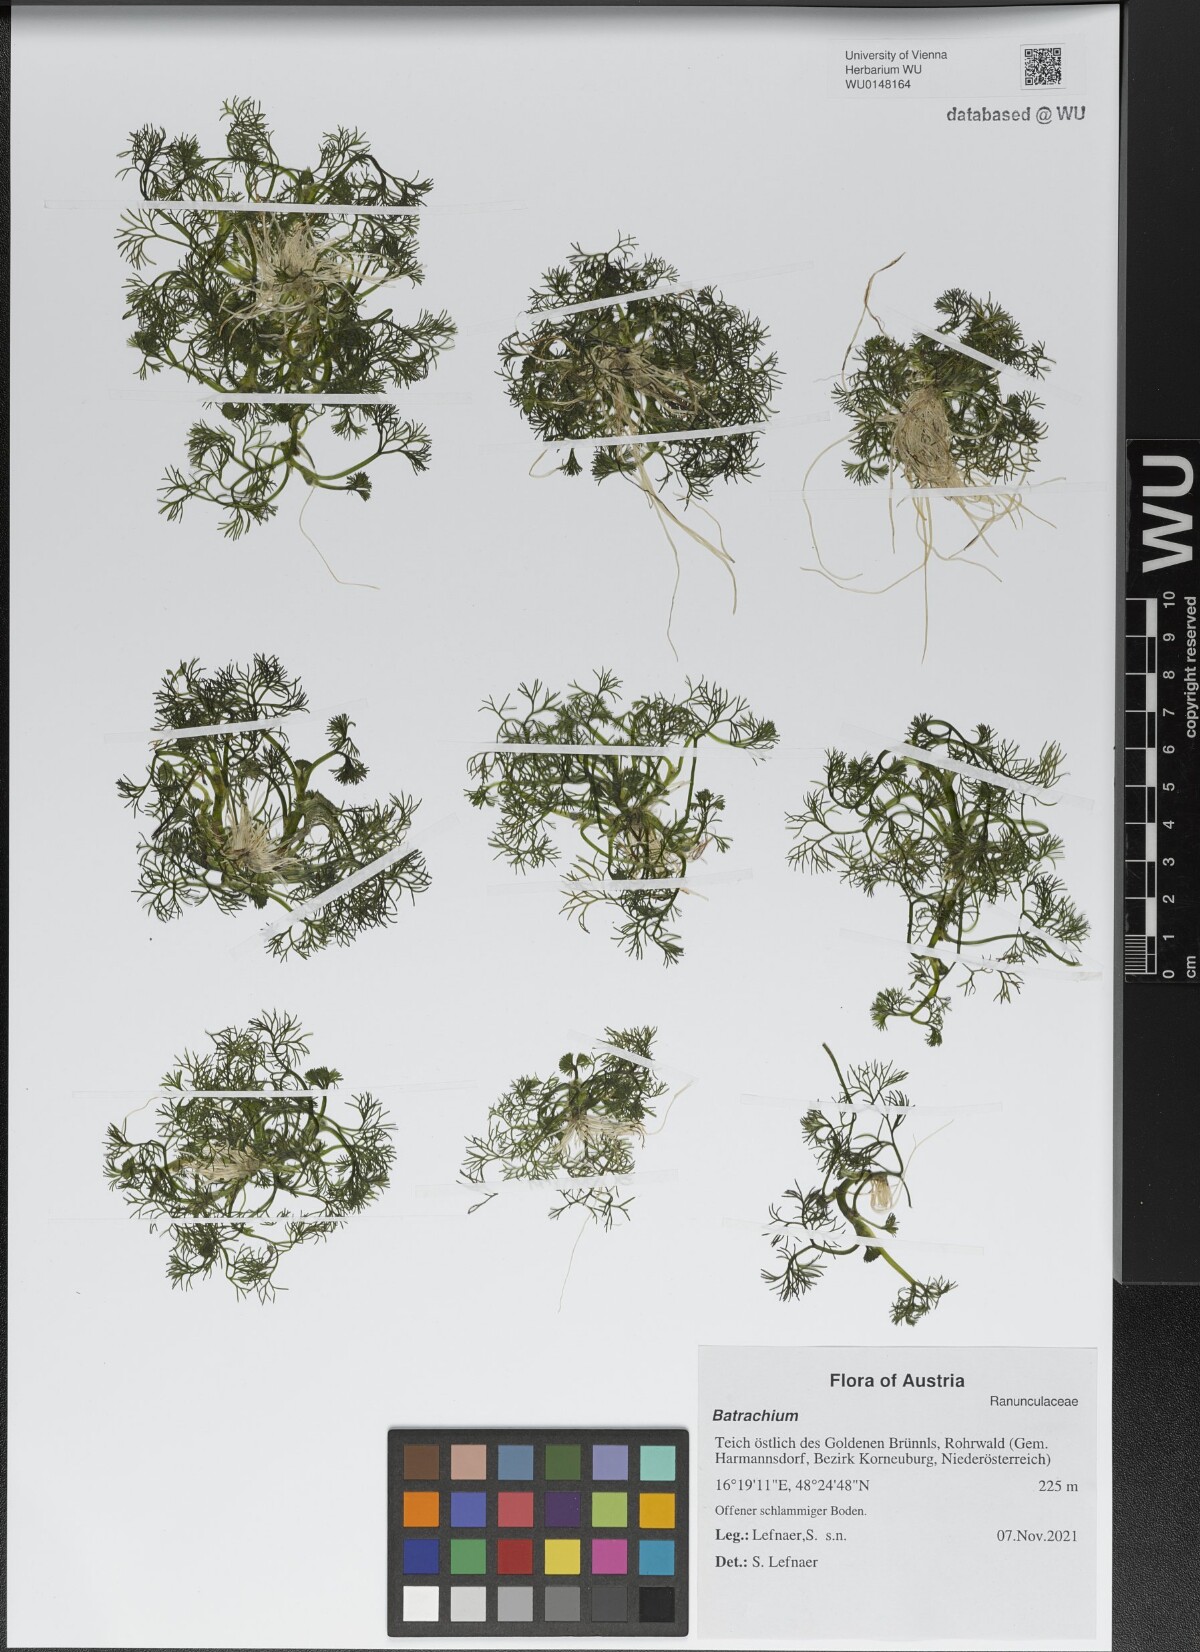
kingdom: Plantae
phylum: Tracheophyta
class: Magnoliopsida
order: Ranunculales
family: Ranunculaceae
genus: Ranunculus
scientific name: Ranunculus
